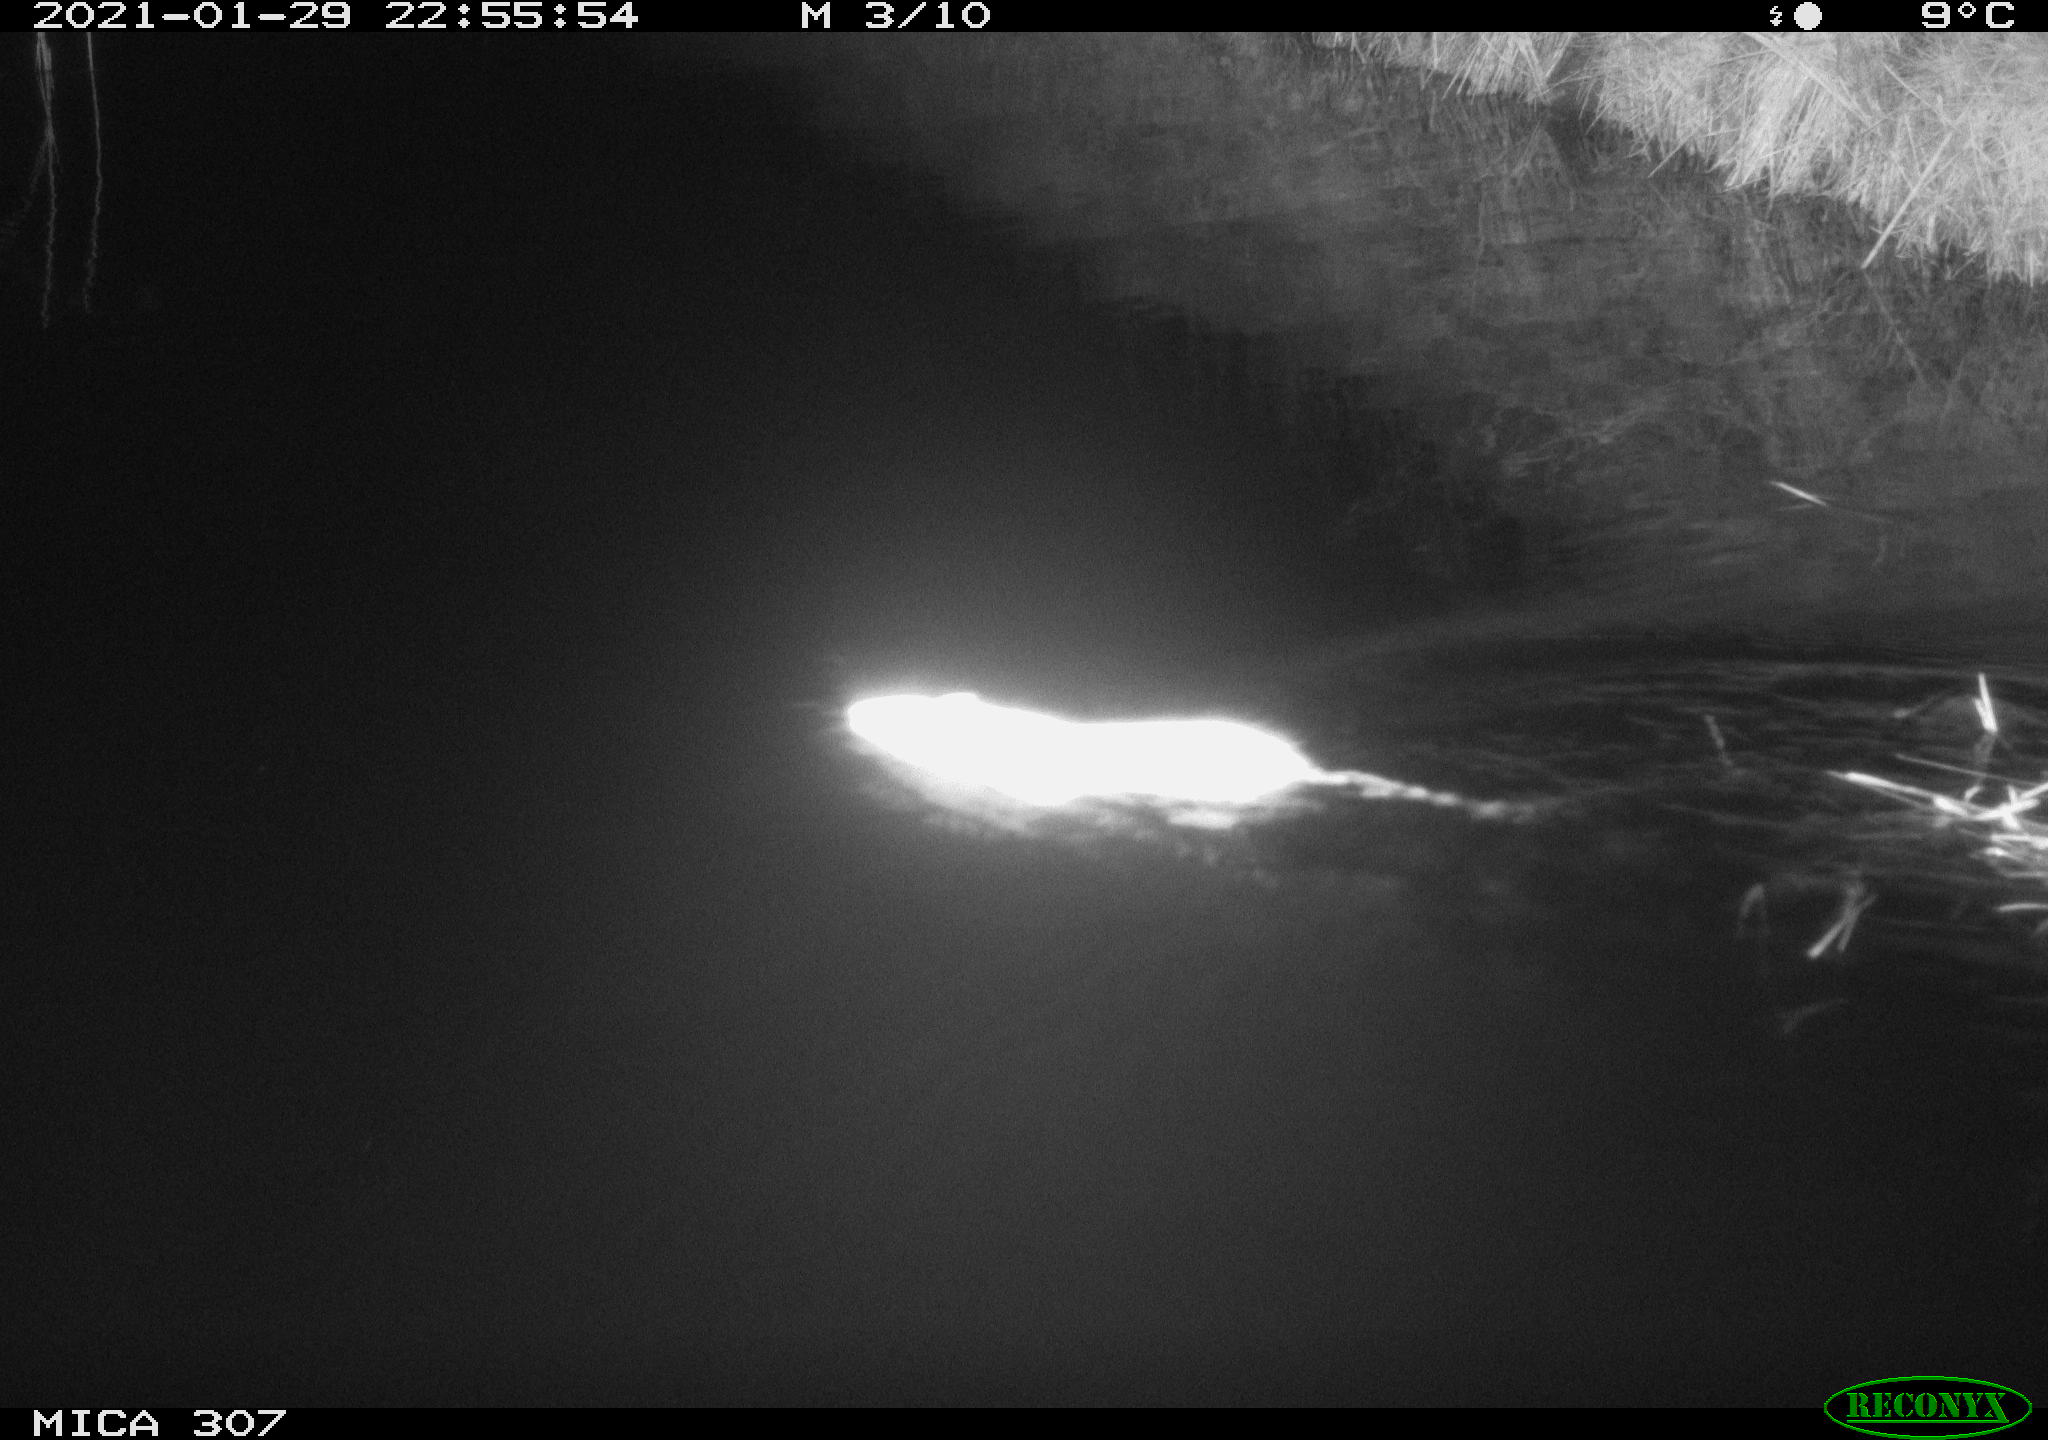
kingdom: Animalia
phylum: Chordata
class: Mammalia
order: Rodentia
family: Muridae
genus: Rattus
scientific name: Rattus norvegicus
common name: Brown rat
